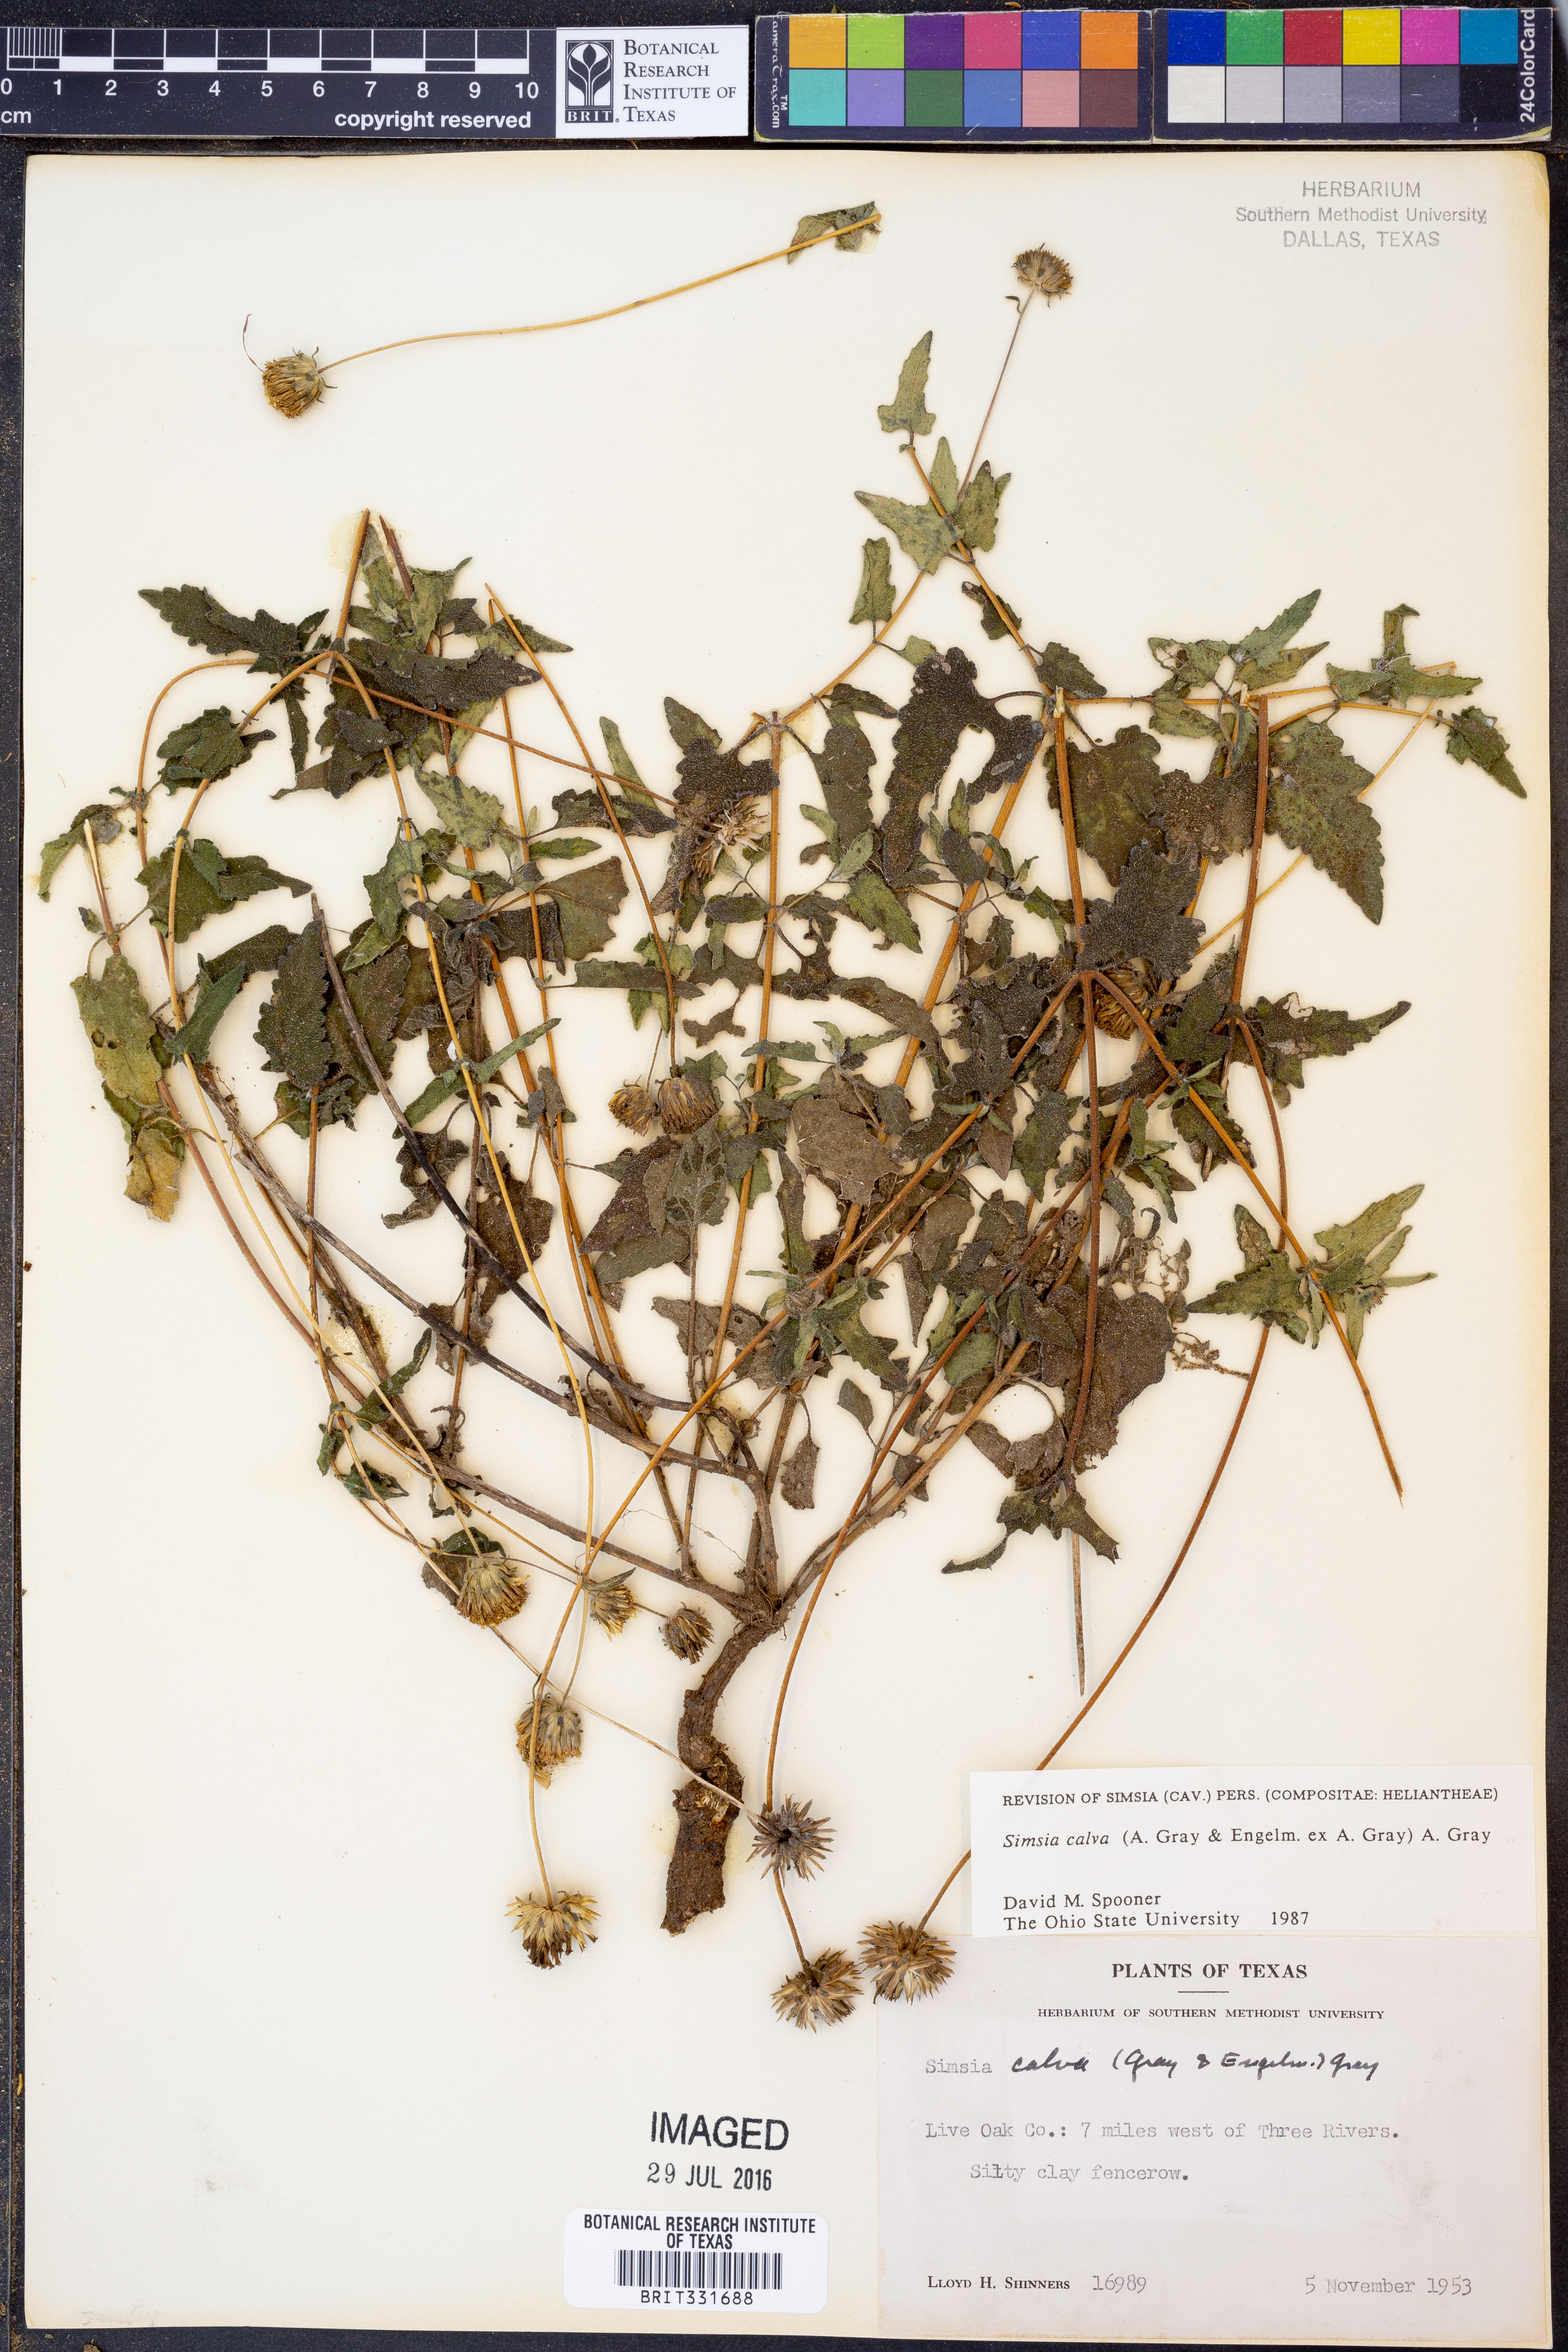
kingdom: Plantae
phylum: Tracheophyta
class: Magnoliopsida
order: Asterales
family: Asteraceae
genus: Simsia
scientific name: Simsia calva
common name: Awnless bush-sunflower
